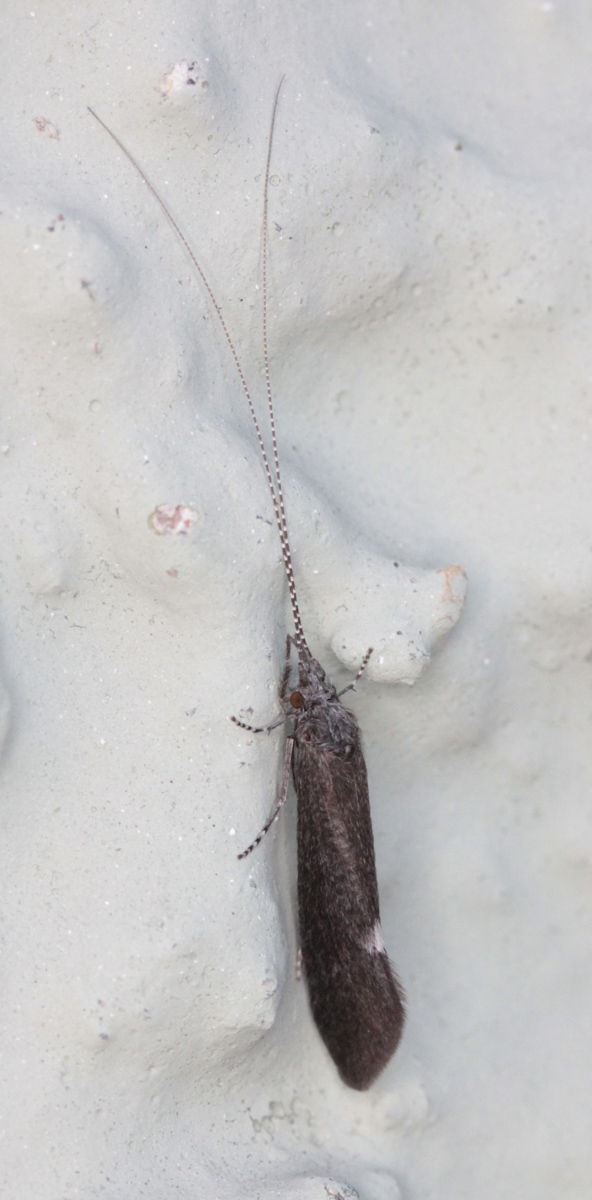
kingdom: Animalia
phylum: Arthropoda
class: Insecta
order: Trichoptera
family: Leptoceridae
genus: Ceraclea
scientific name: Ceraclea dissimilis
